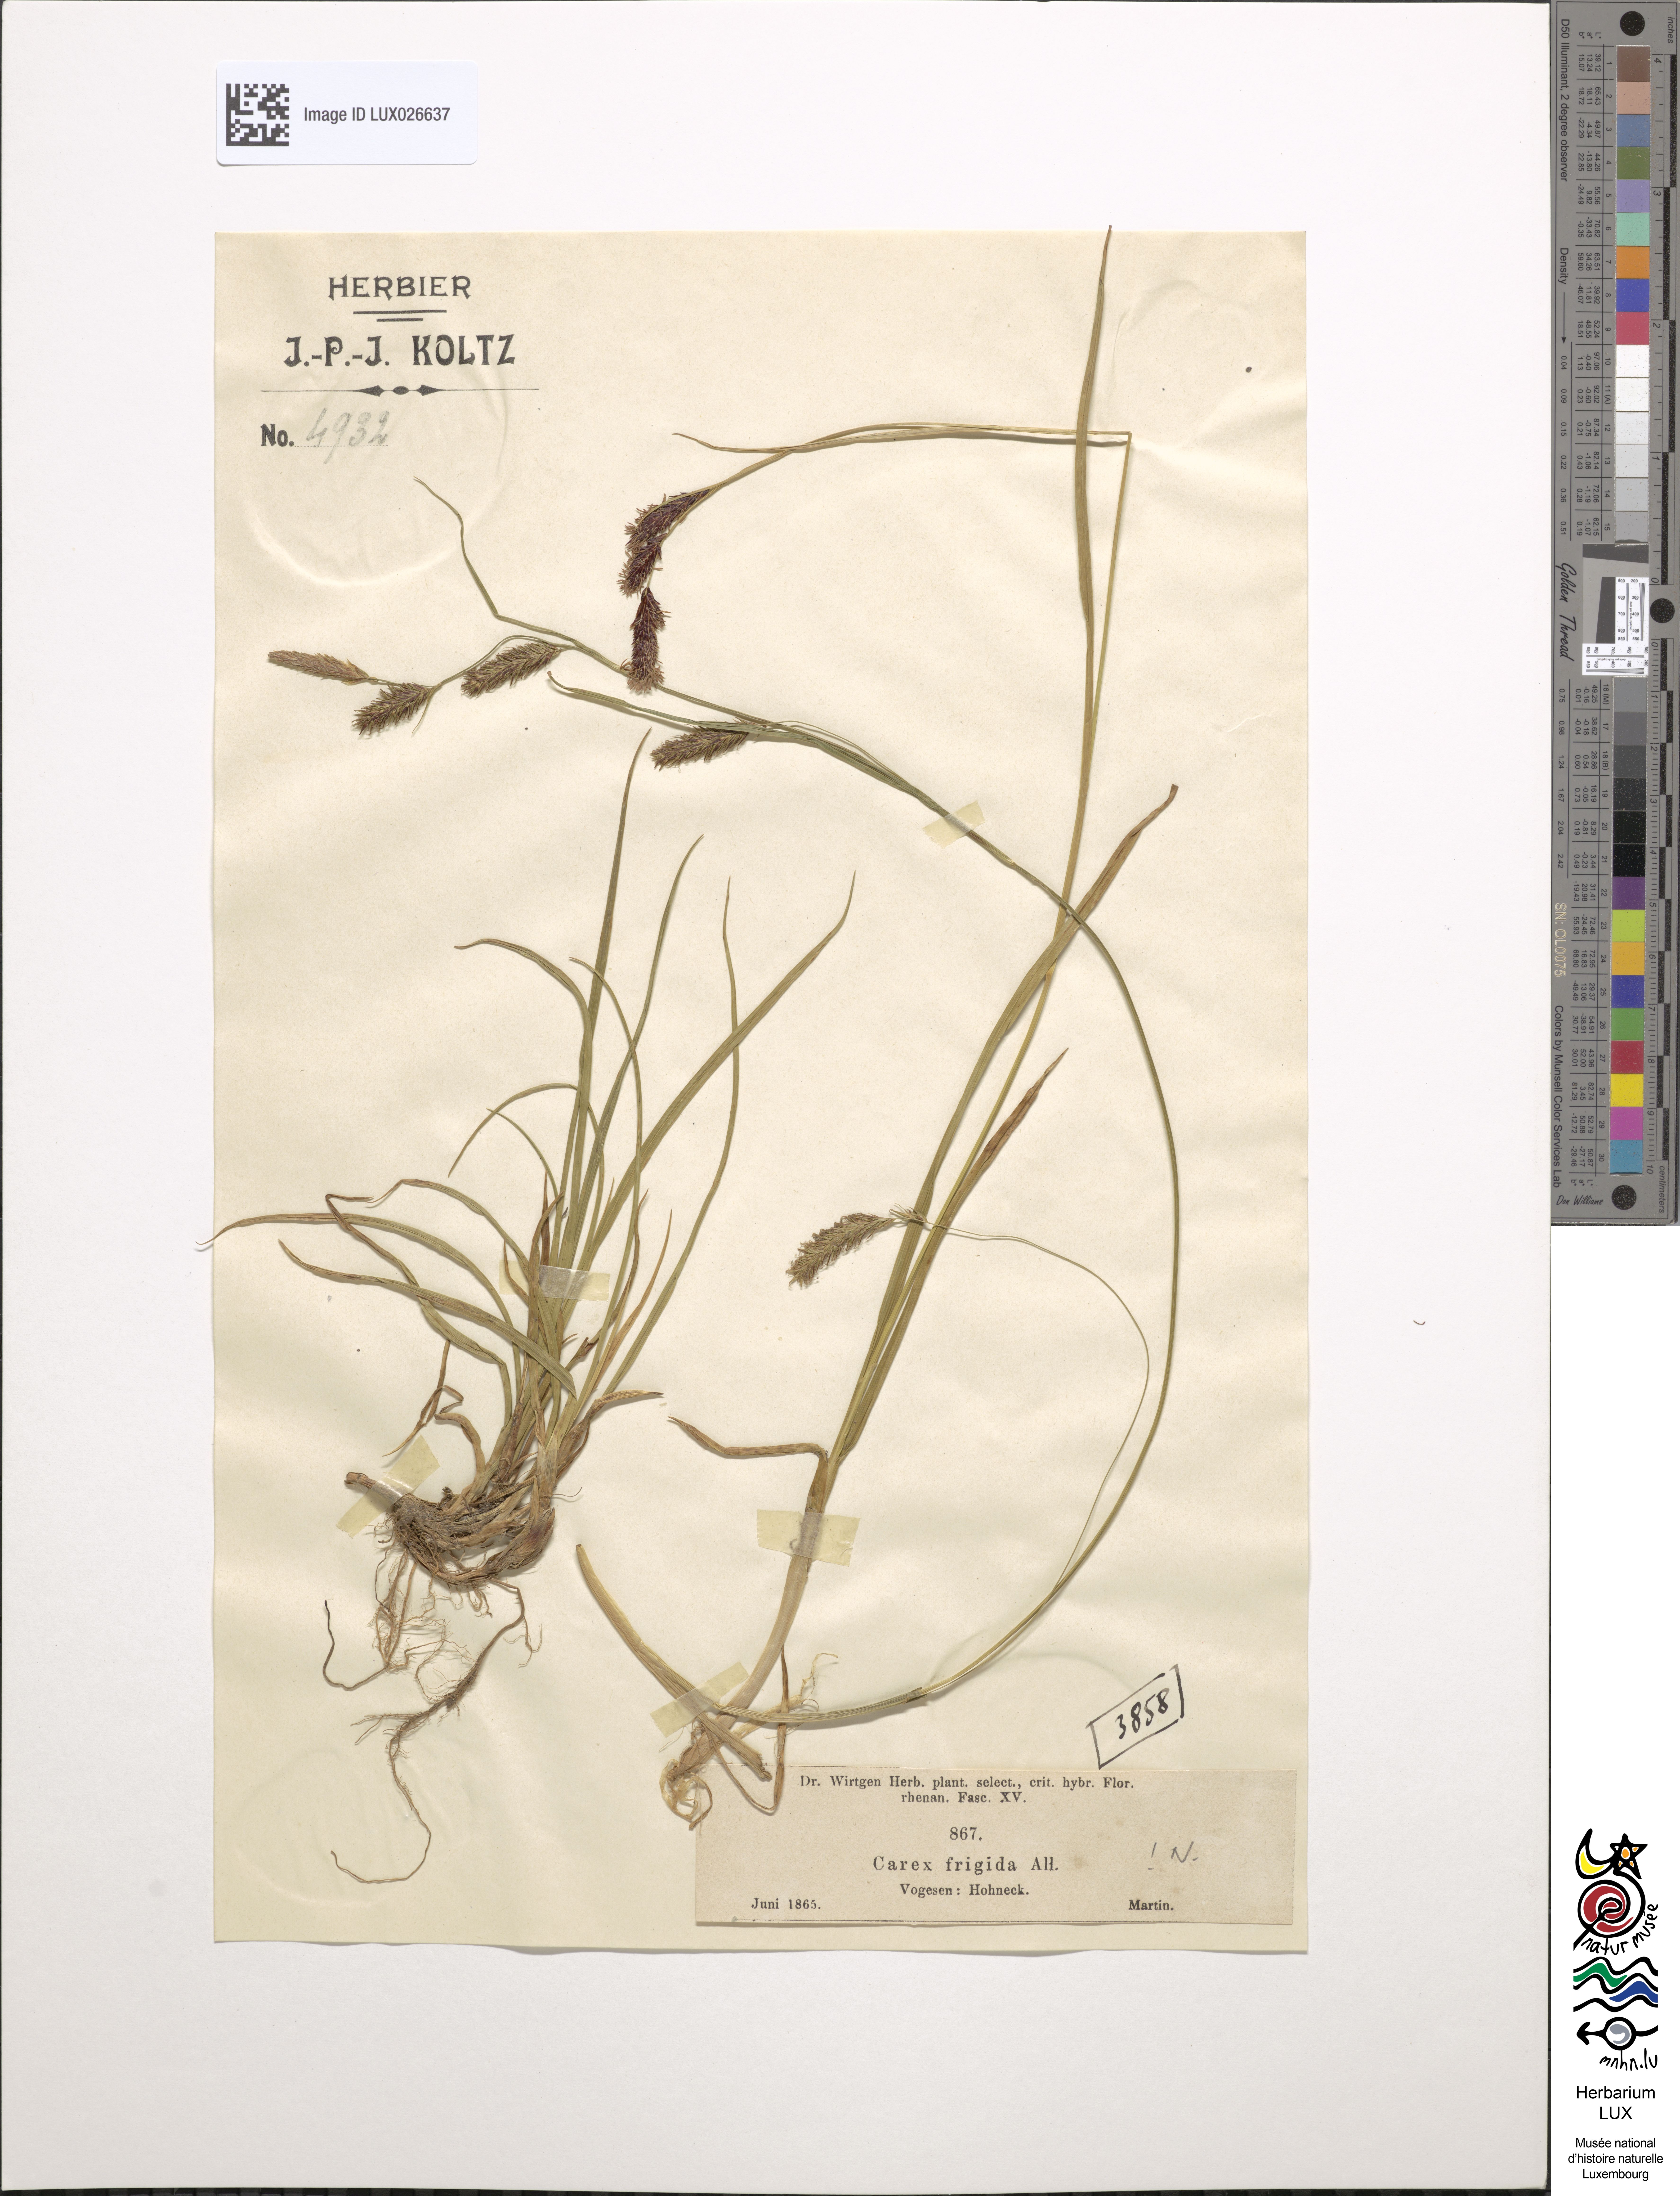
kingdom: Plantae
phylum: Tracheophyta
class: Liliopsida
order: Poales
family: Cyperaceae
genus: Carex
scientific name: Carex frigida
